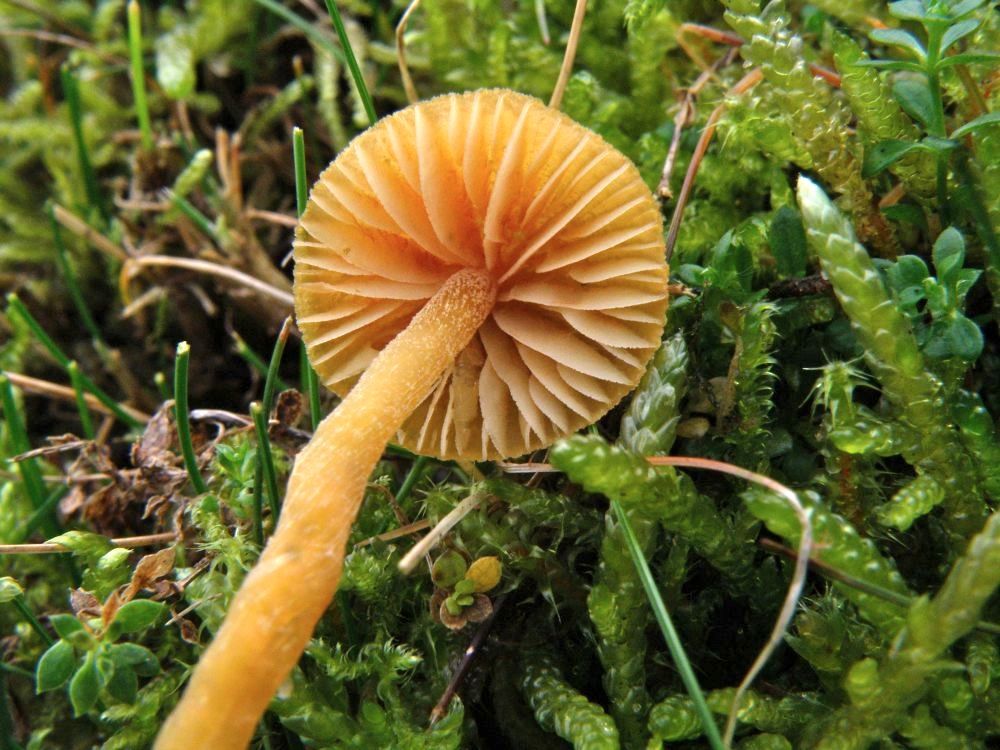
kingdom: Fungi
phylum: Basidiomycota
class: Agaricomycetes
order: Agaricales
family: Hymenogastraceae
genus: Galerina
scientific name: Galerina pumila
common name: honninggul hjelmhat
